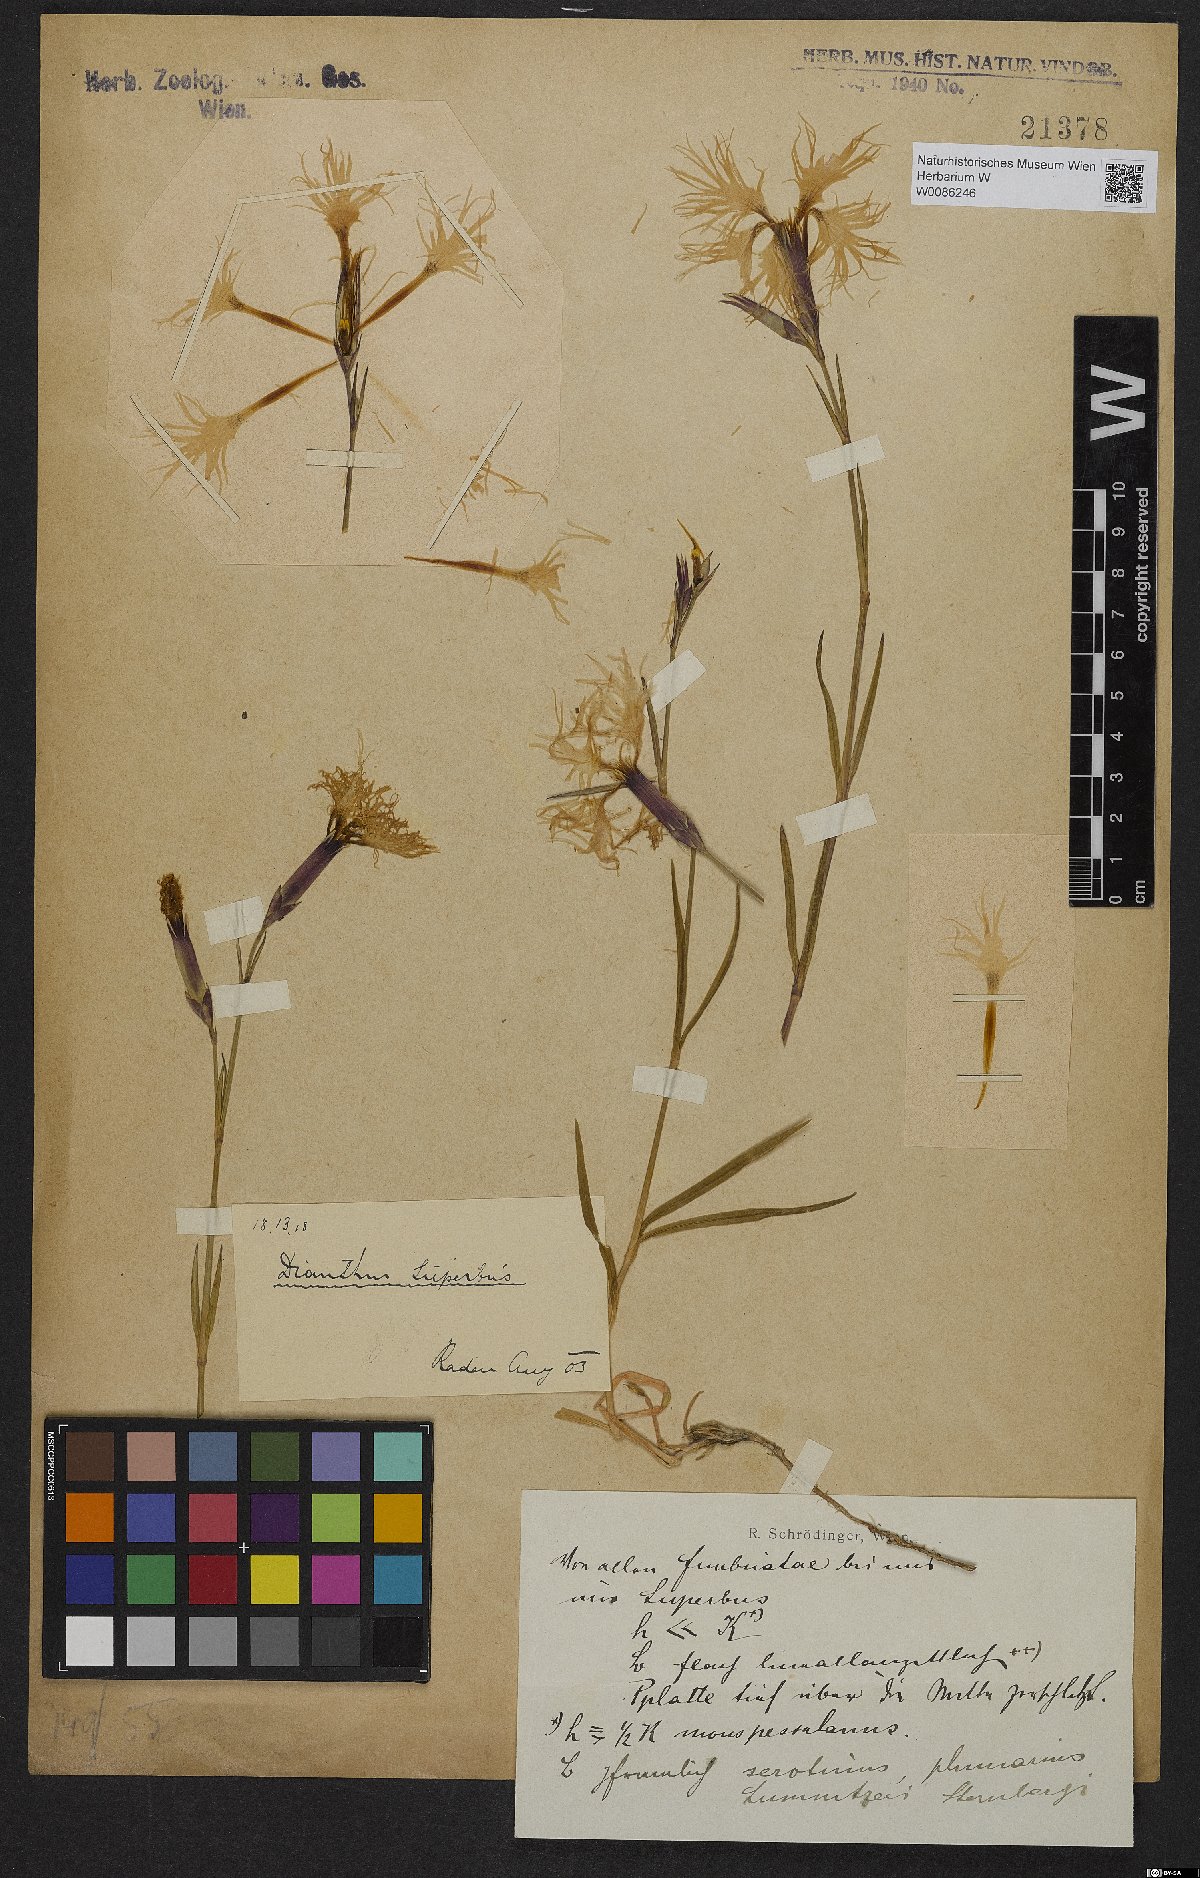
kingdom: Plantae
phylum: Tracheophyta
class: Magnoliopsida
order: Caryophyllales
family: Caryophyllaceae
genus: Dianthus
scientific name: Dianthus superbus
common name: Fringed pink
